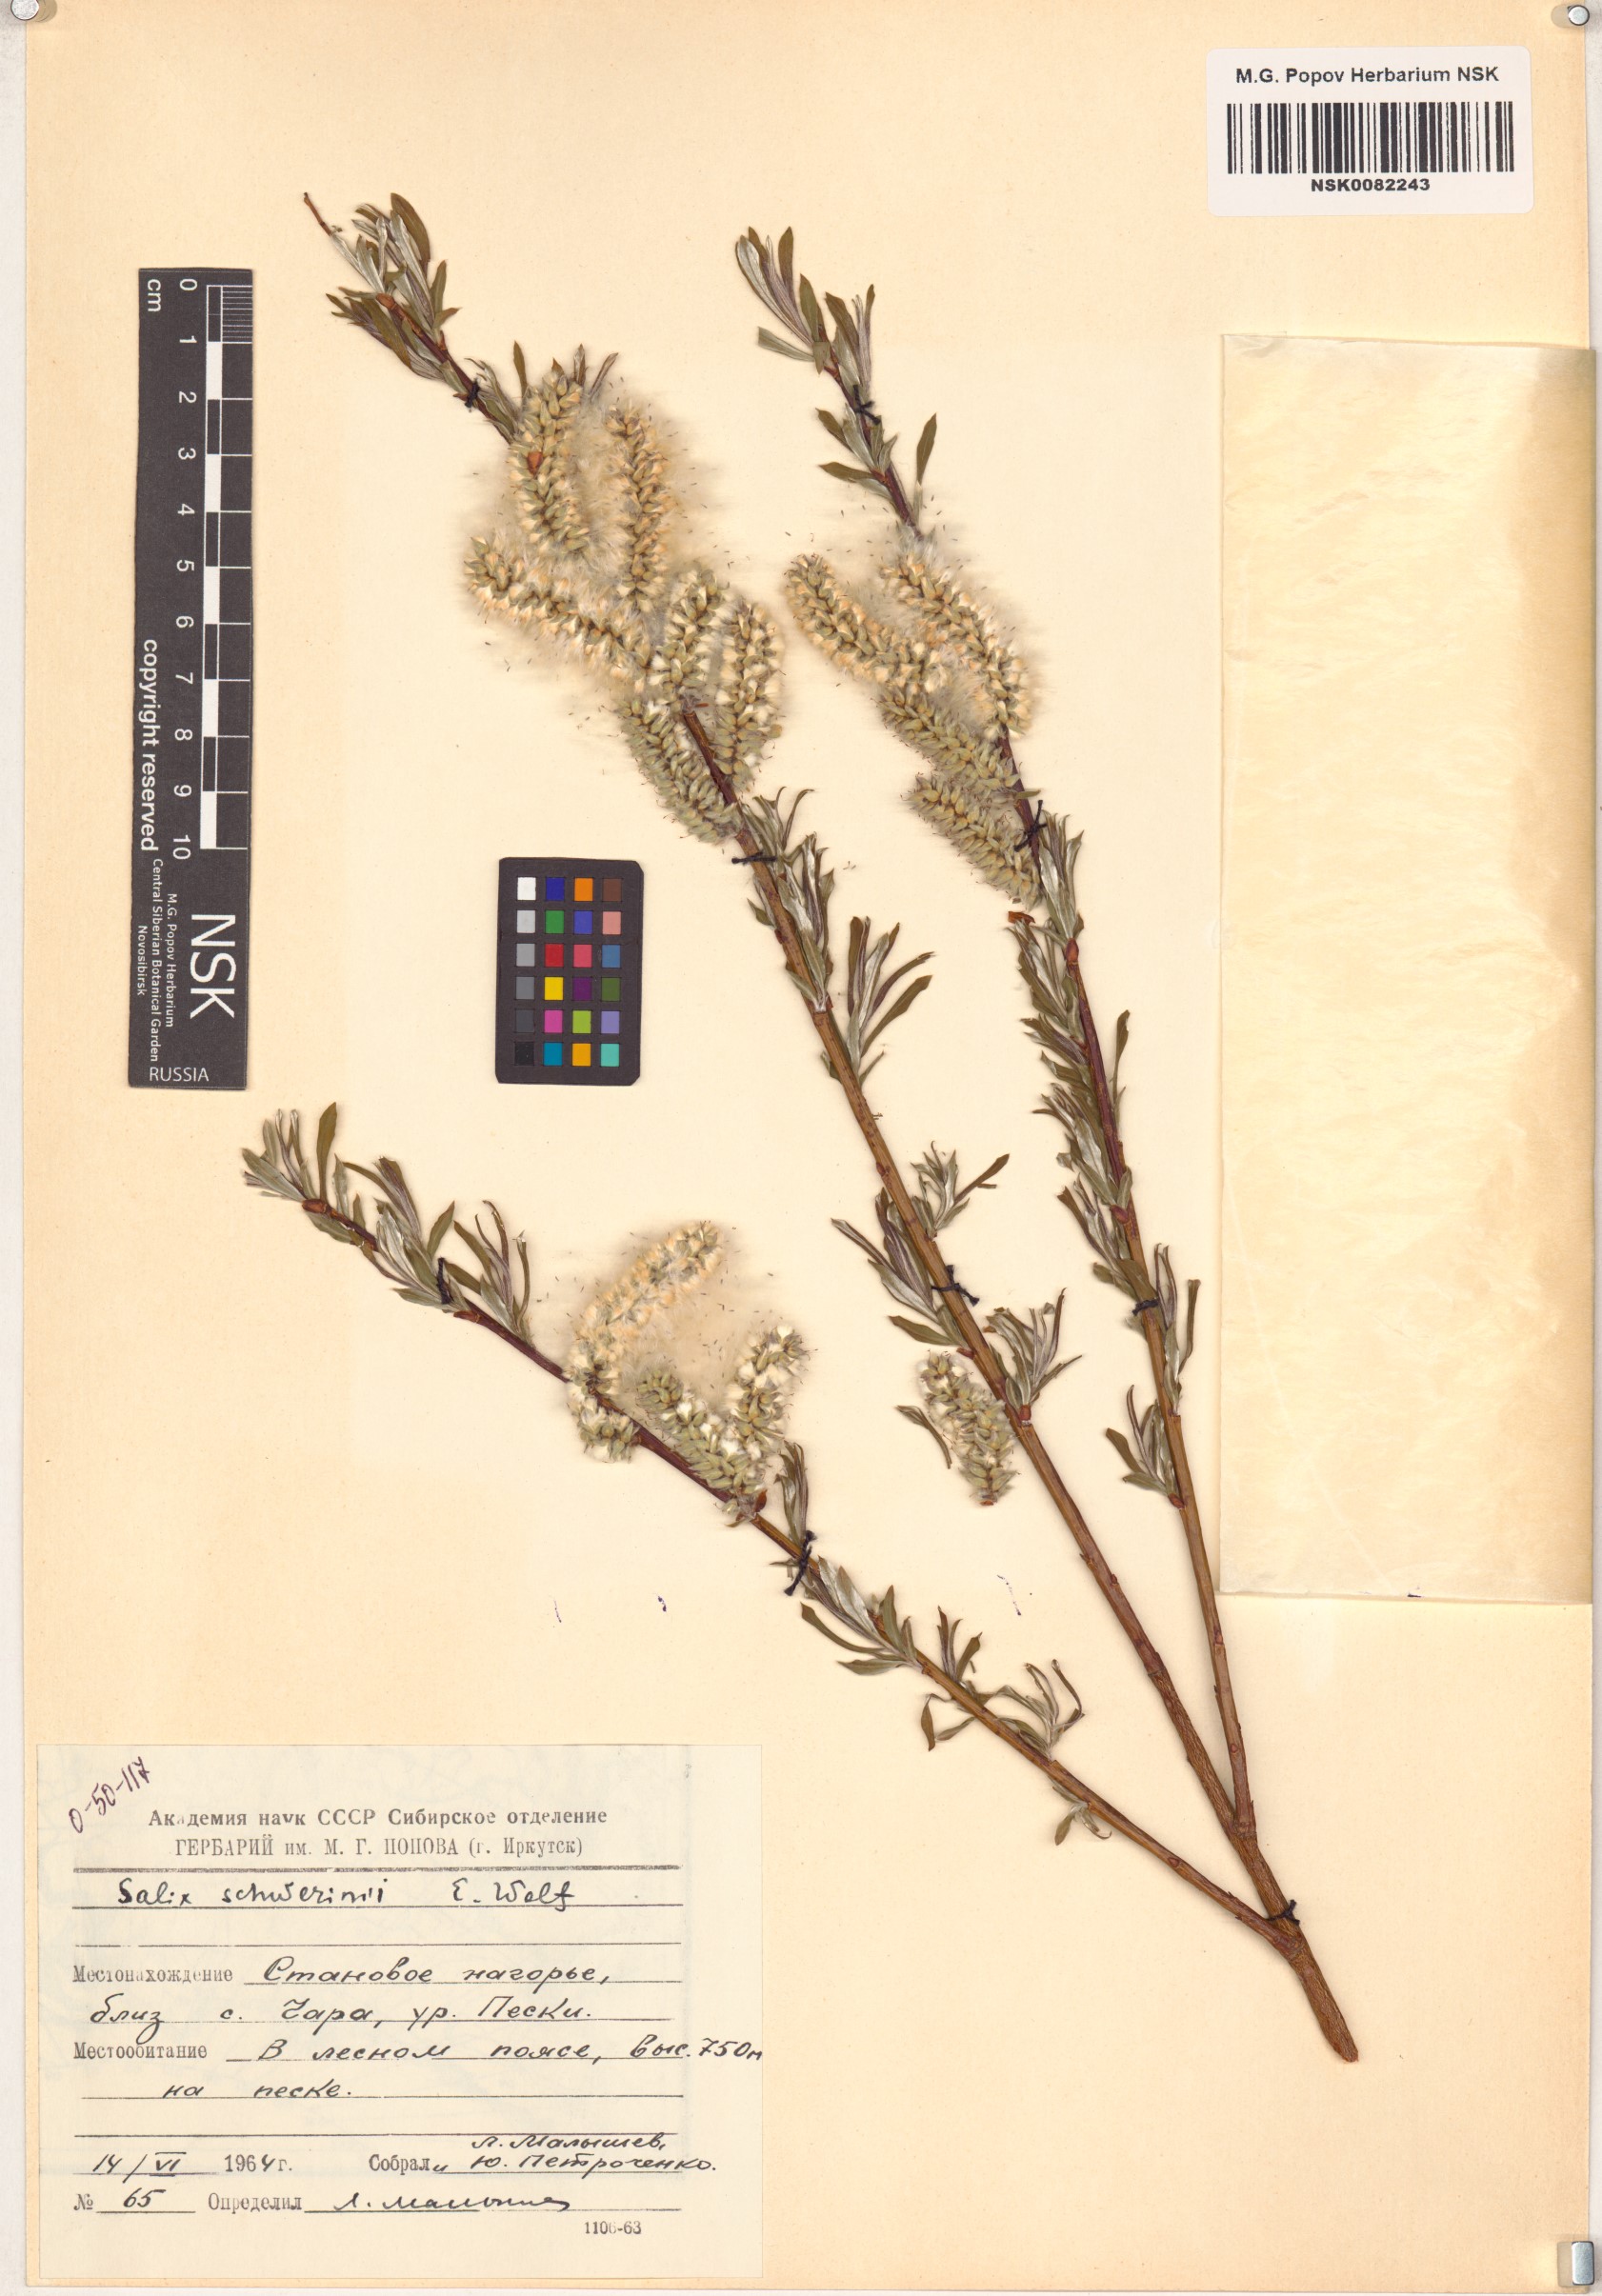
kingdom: Plantae
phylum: Tracheophyta
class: Magnoliopsida
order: Malpighiales
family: Salicaceae
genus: Salix
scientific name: Salix schwerinii
